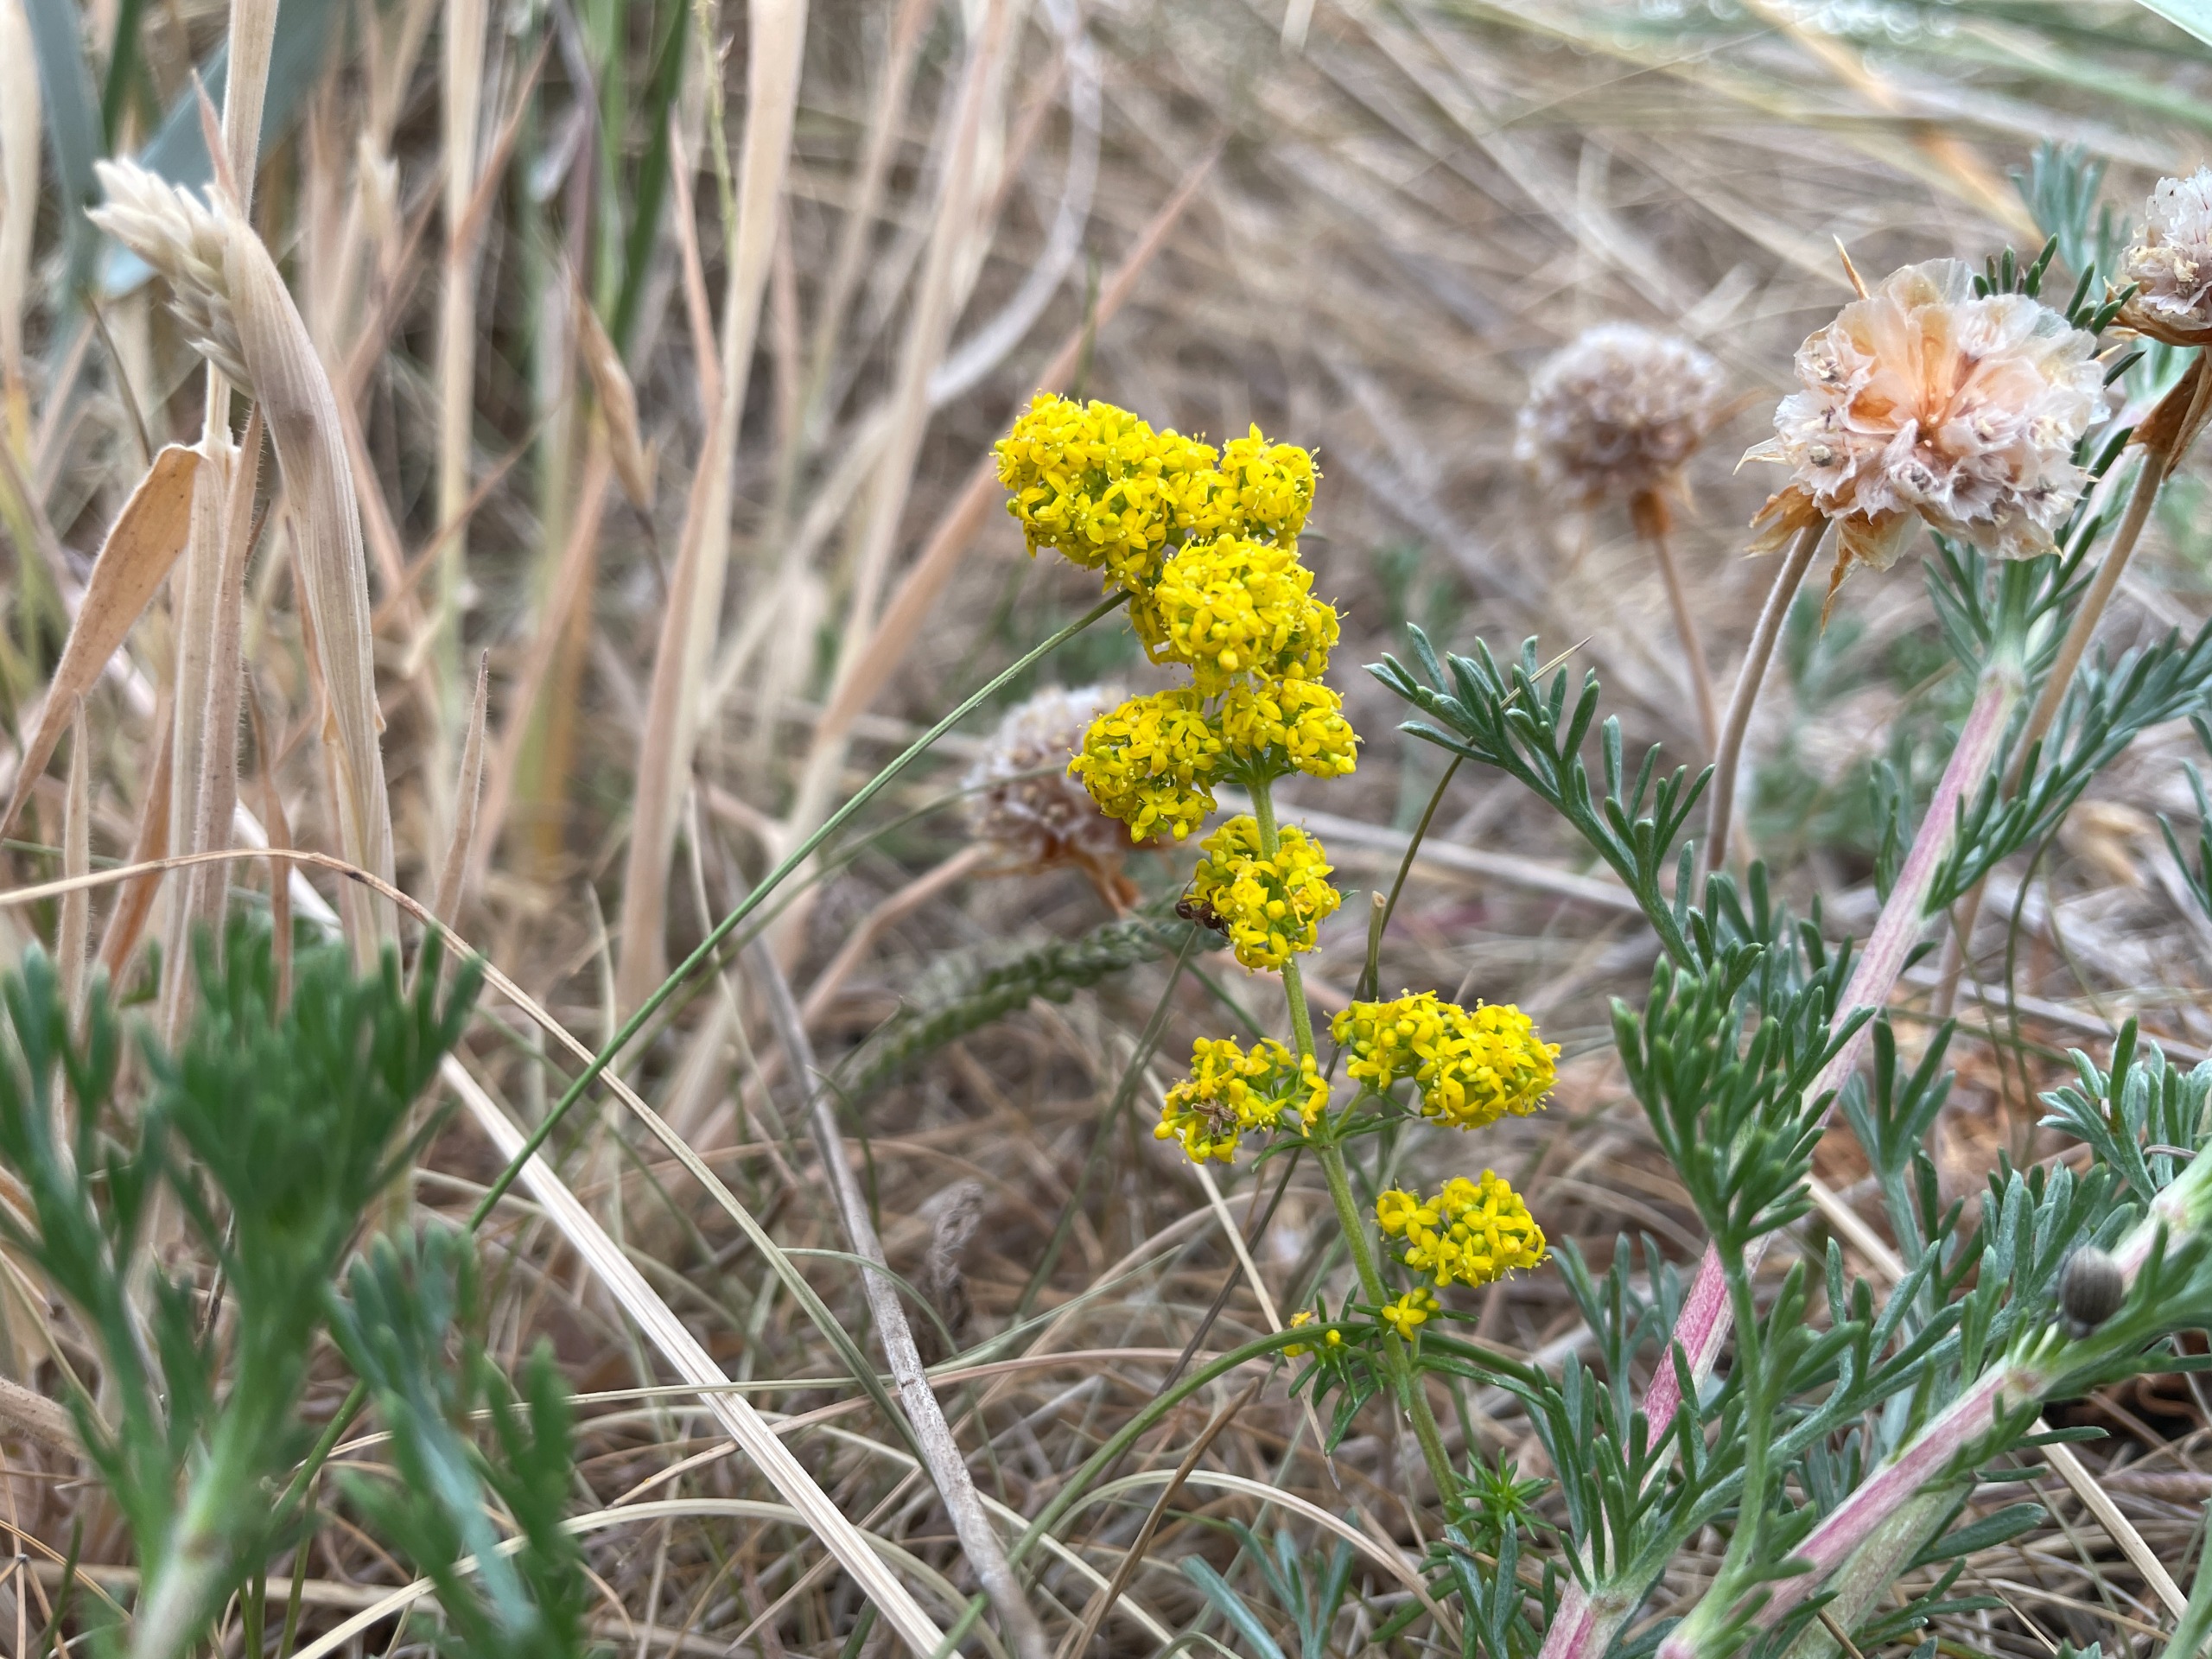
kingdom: Plantae
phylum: Tracheophyta
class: Magnoliopsida
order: Gentianales
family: Rubiaceae
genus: Galium
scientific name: Galium verum
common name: Gul snerre
